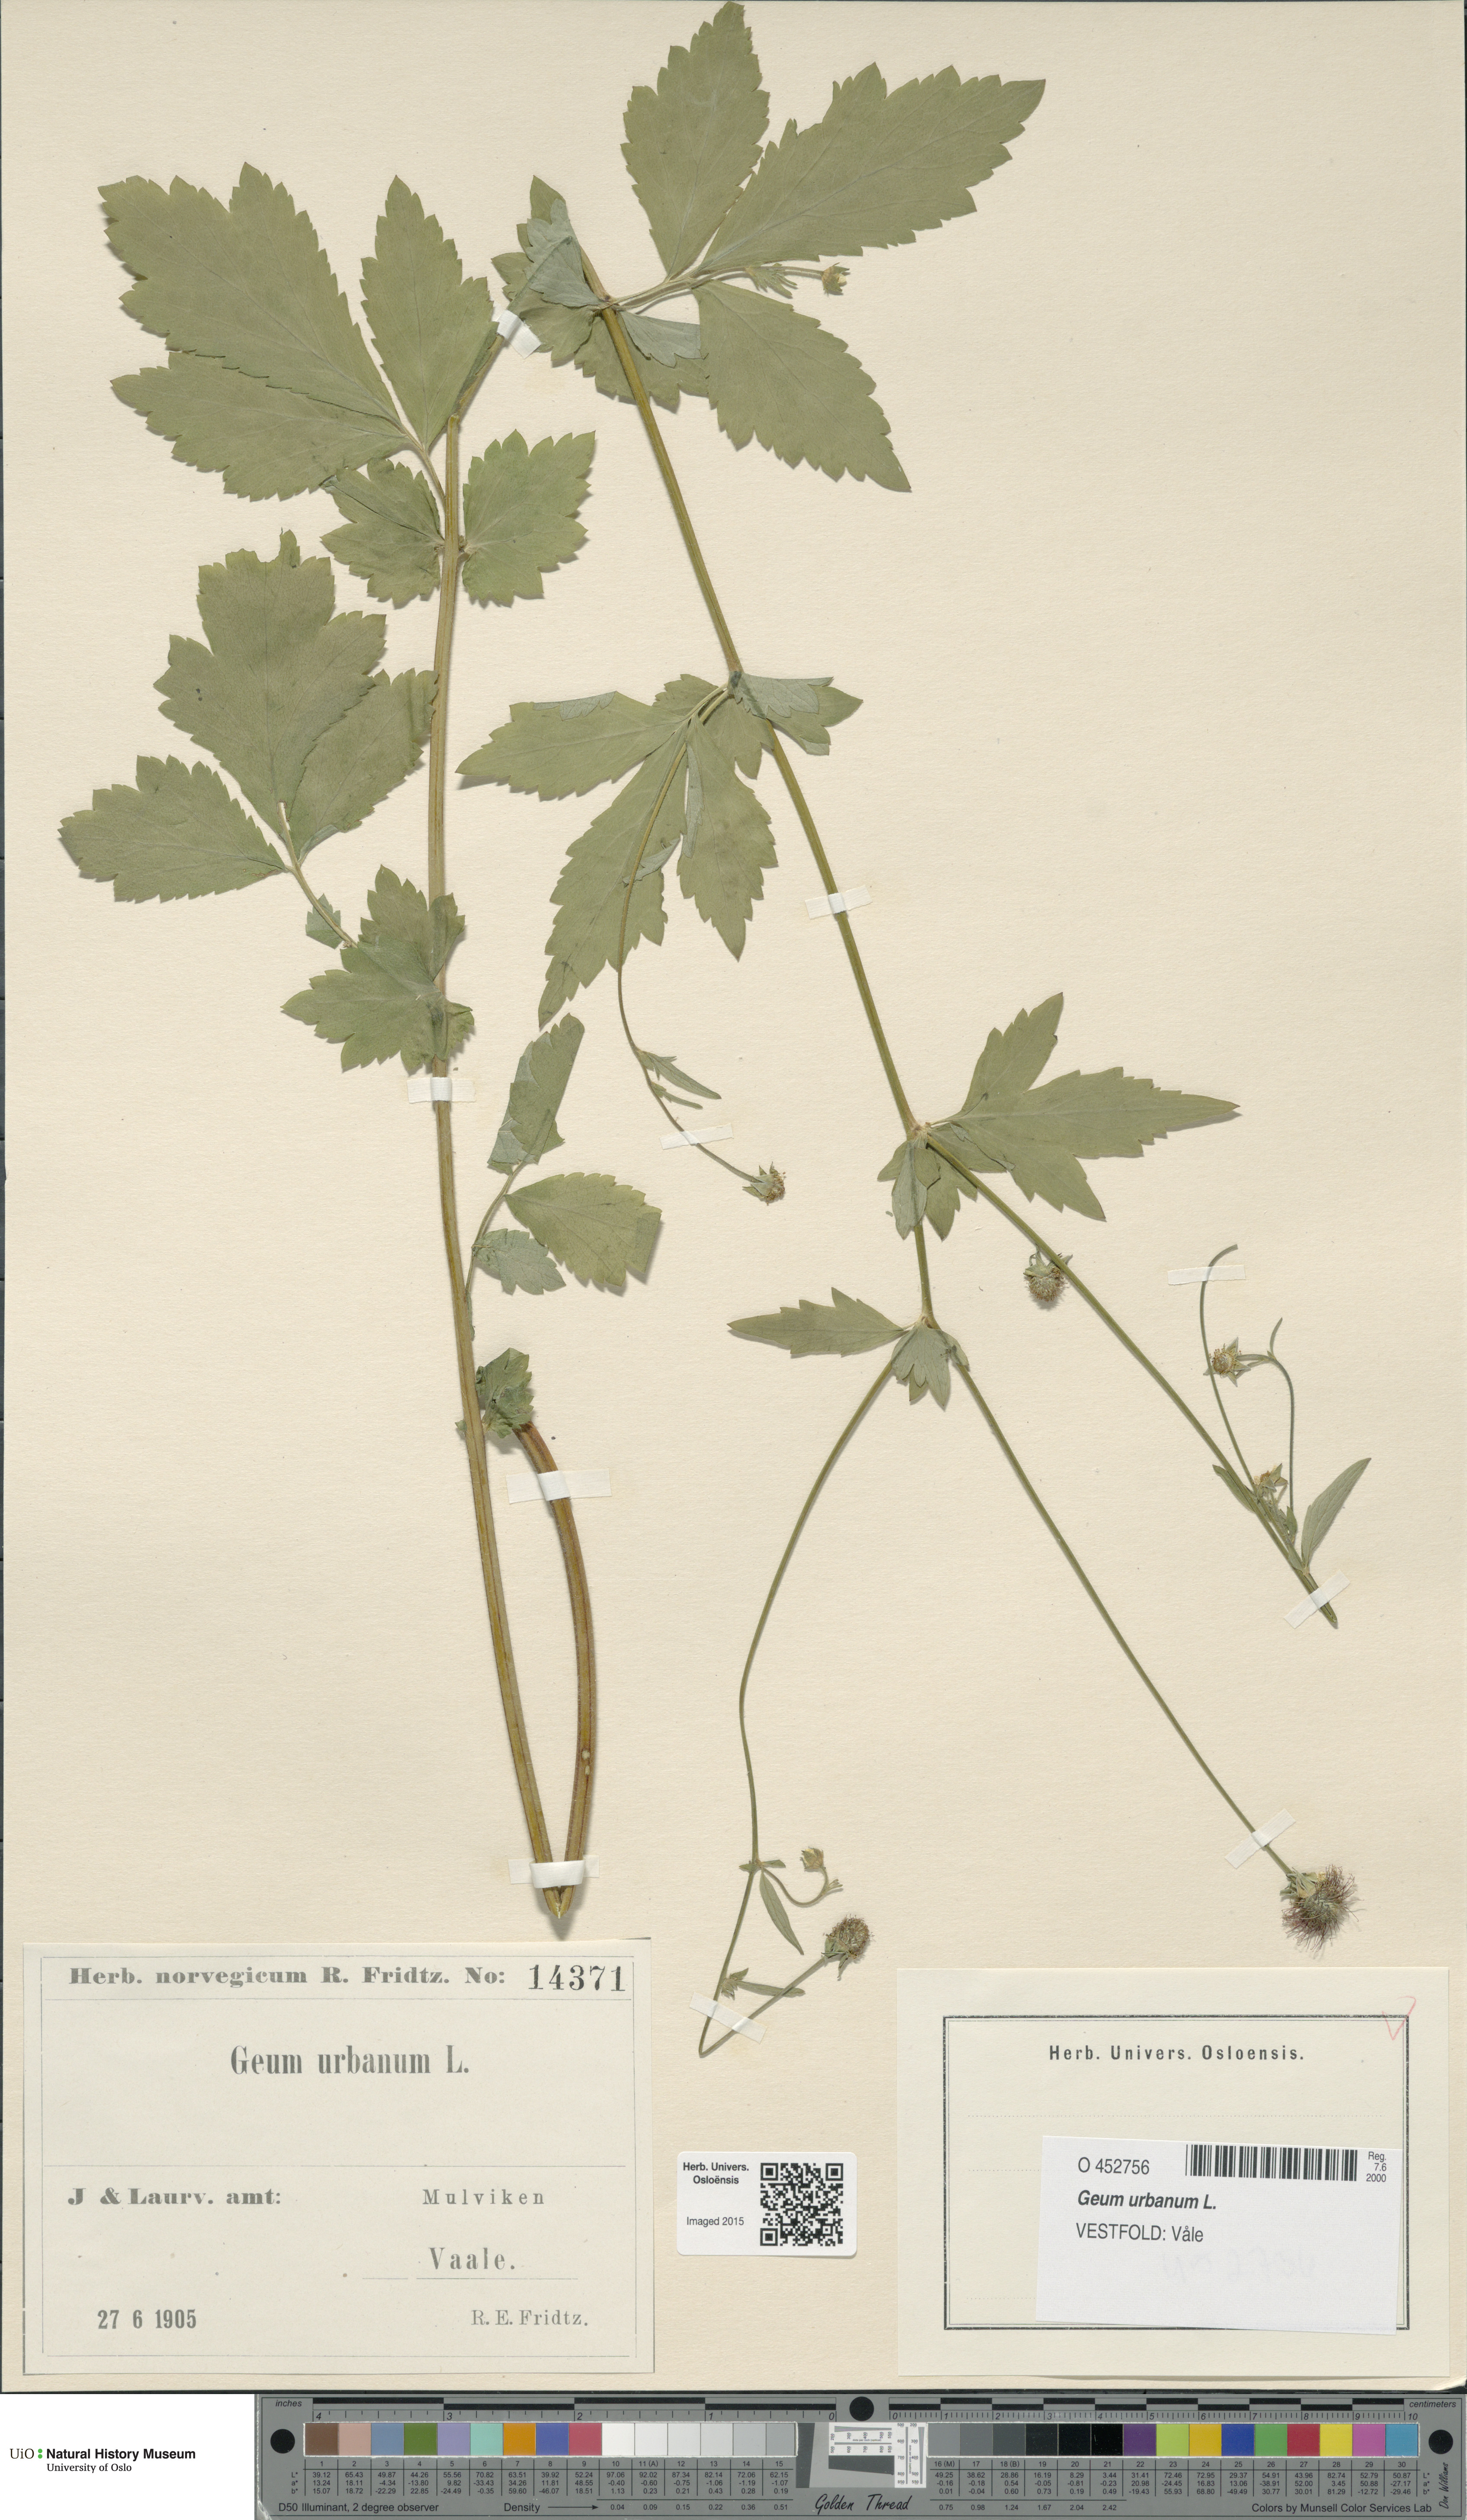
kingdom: Plantae
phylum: Tracheophyta
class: Magnoliopsida
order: Rosales
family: Rosaceae
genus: Geum
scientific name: Geum urbanum
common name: Wood avens
